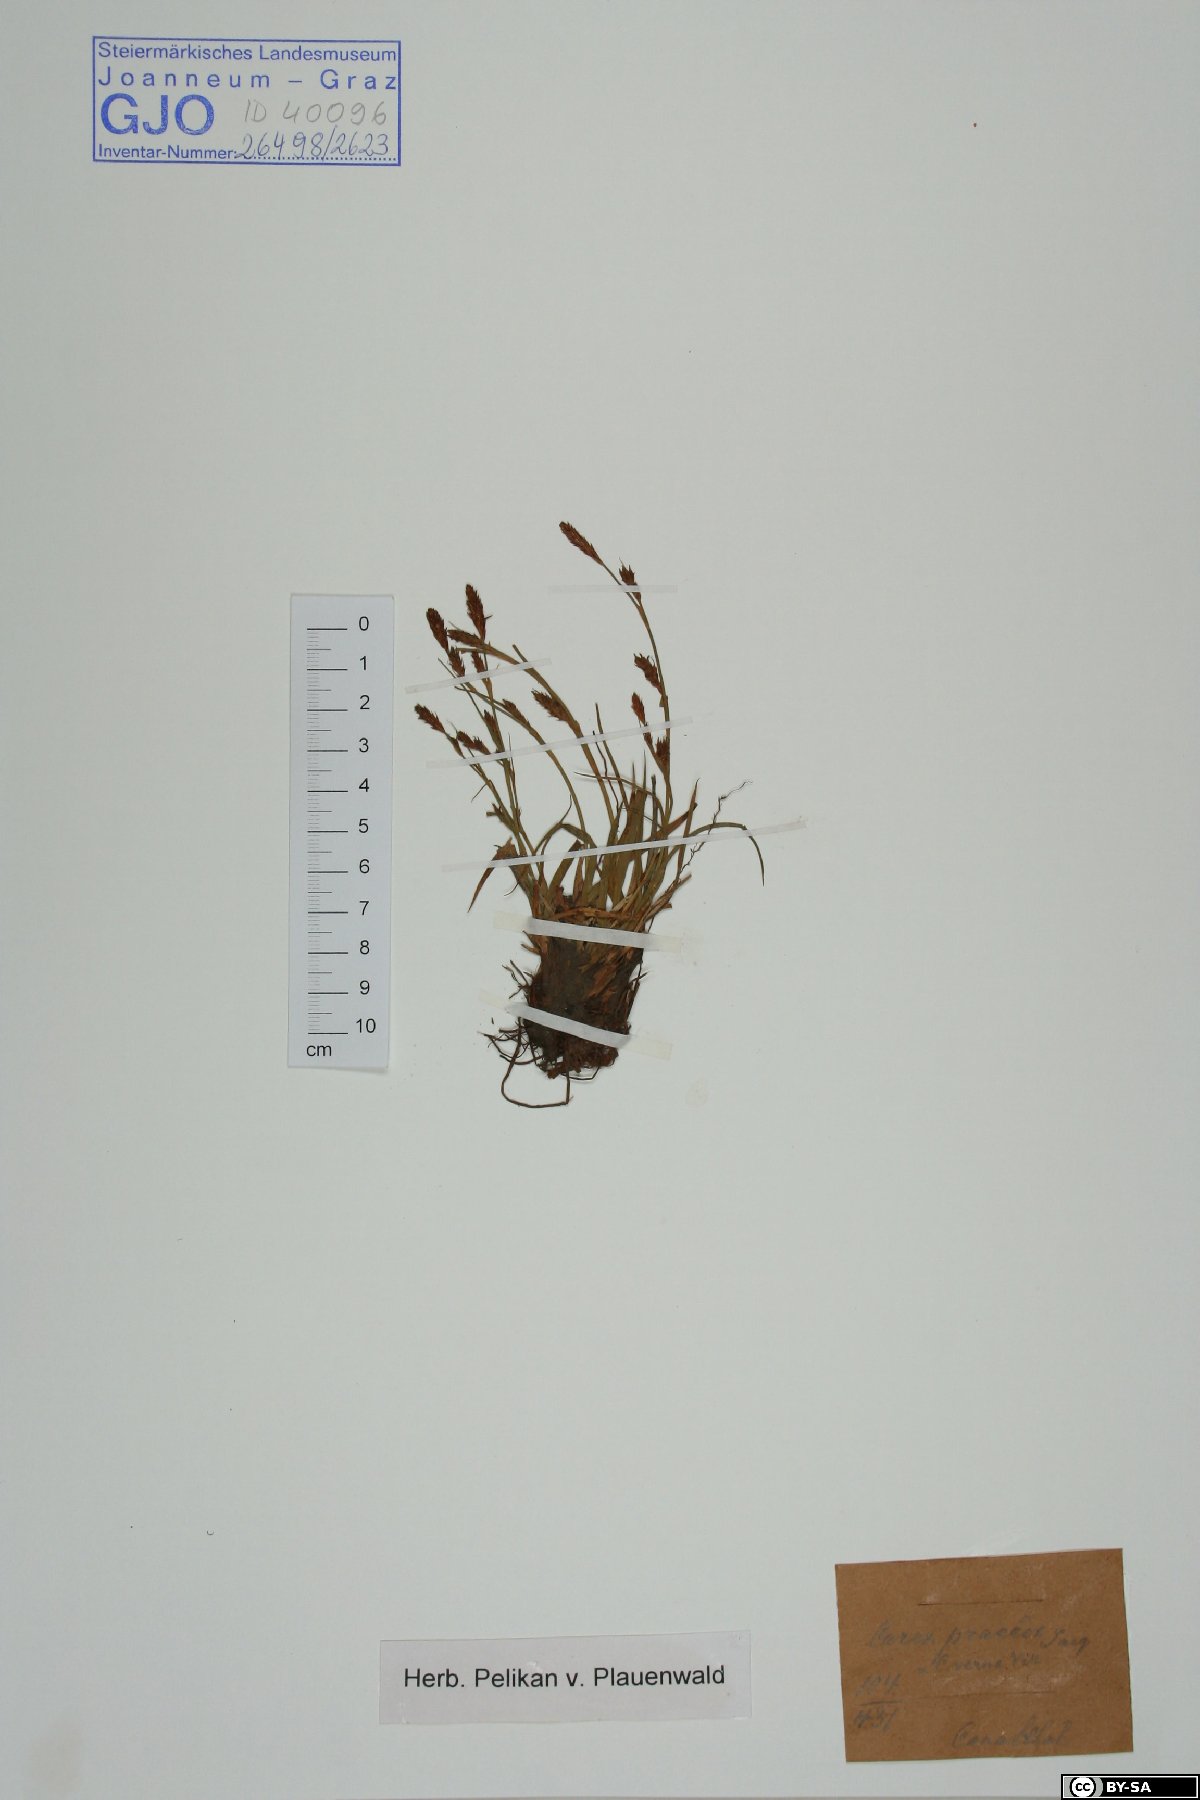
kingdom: Plantae
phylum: Tracheophyta
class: Liliopsida
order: Poales
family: Cyperaceae
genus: Carex
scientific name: Carex praecox
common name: Early sedge
